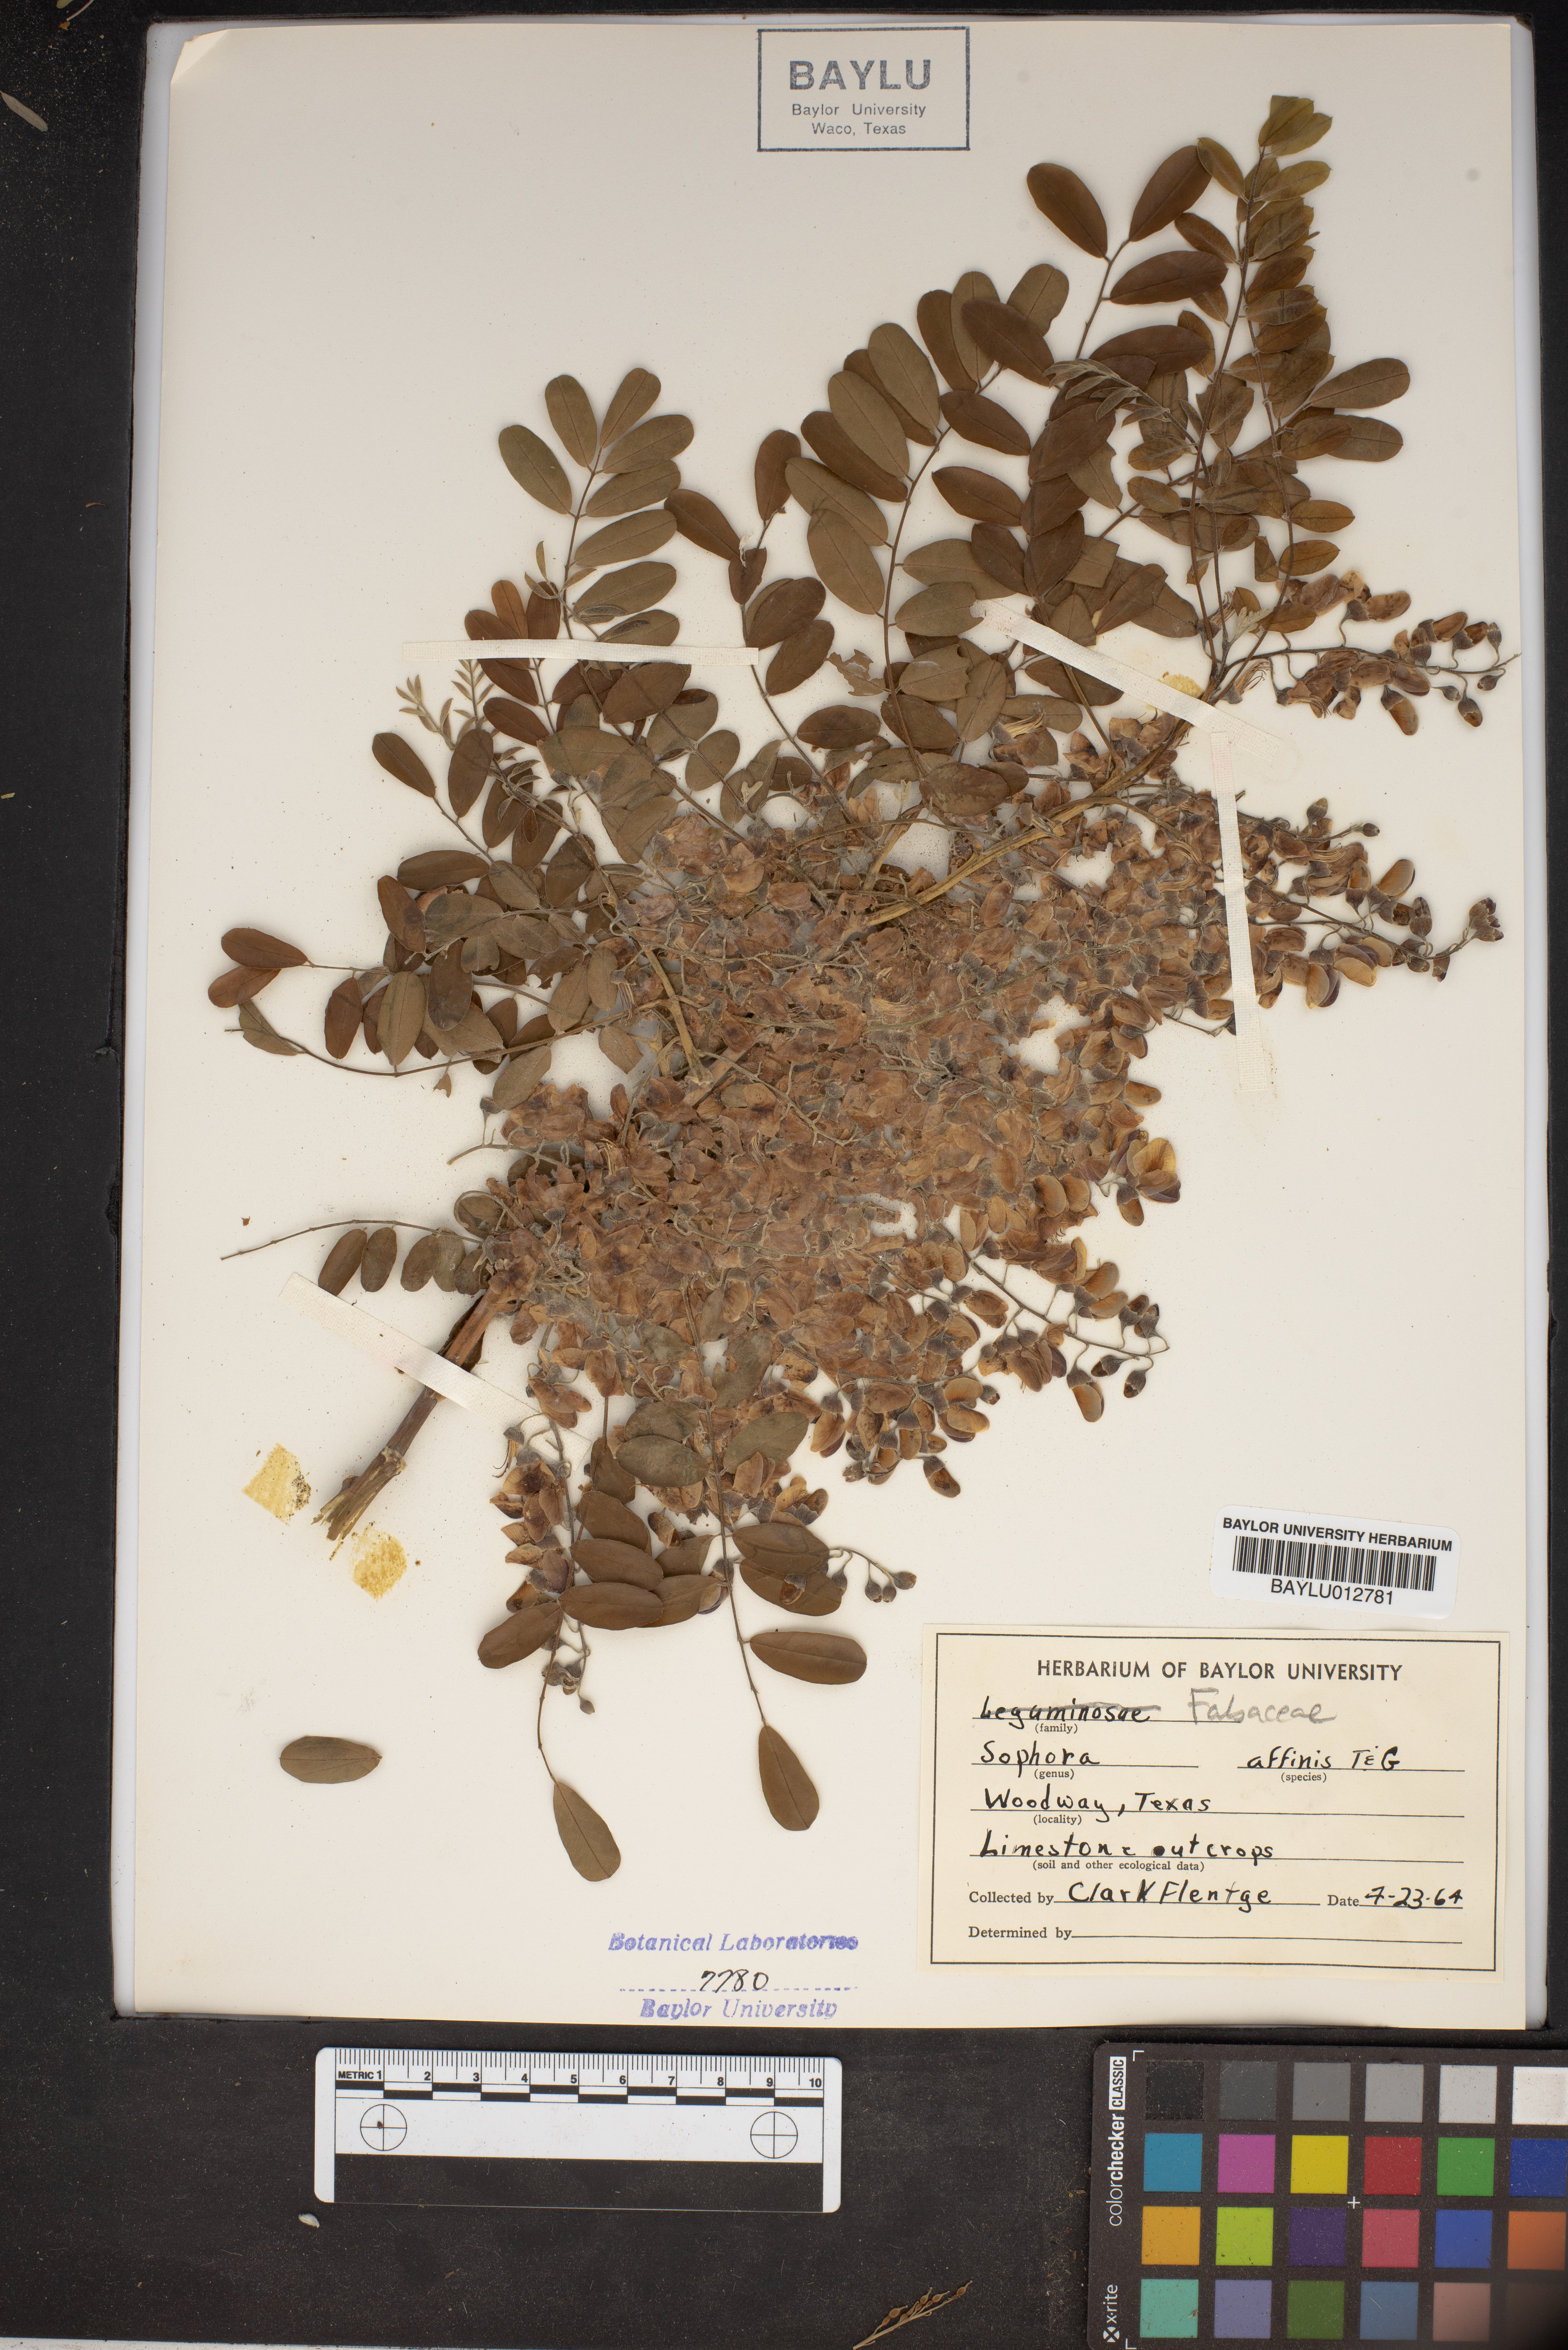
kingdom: Plantae
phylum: Tracheophyta
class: Magnoliopsida
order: Fabales
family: Fabaceae
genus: Styphnolobium
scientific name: Styphnolobium affine
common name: Texas sophora
